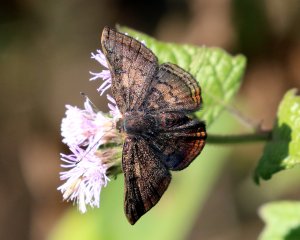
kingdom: Animalia
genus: Caria
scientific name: Caria ino
